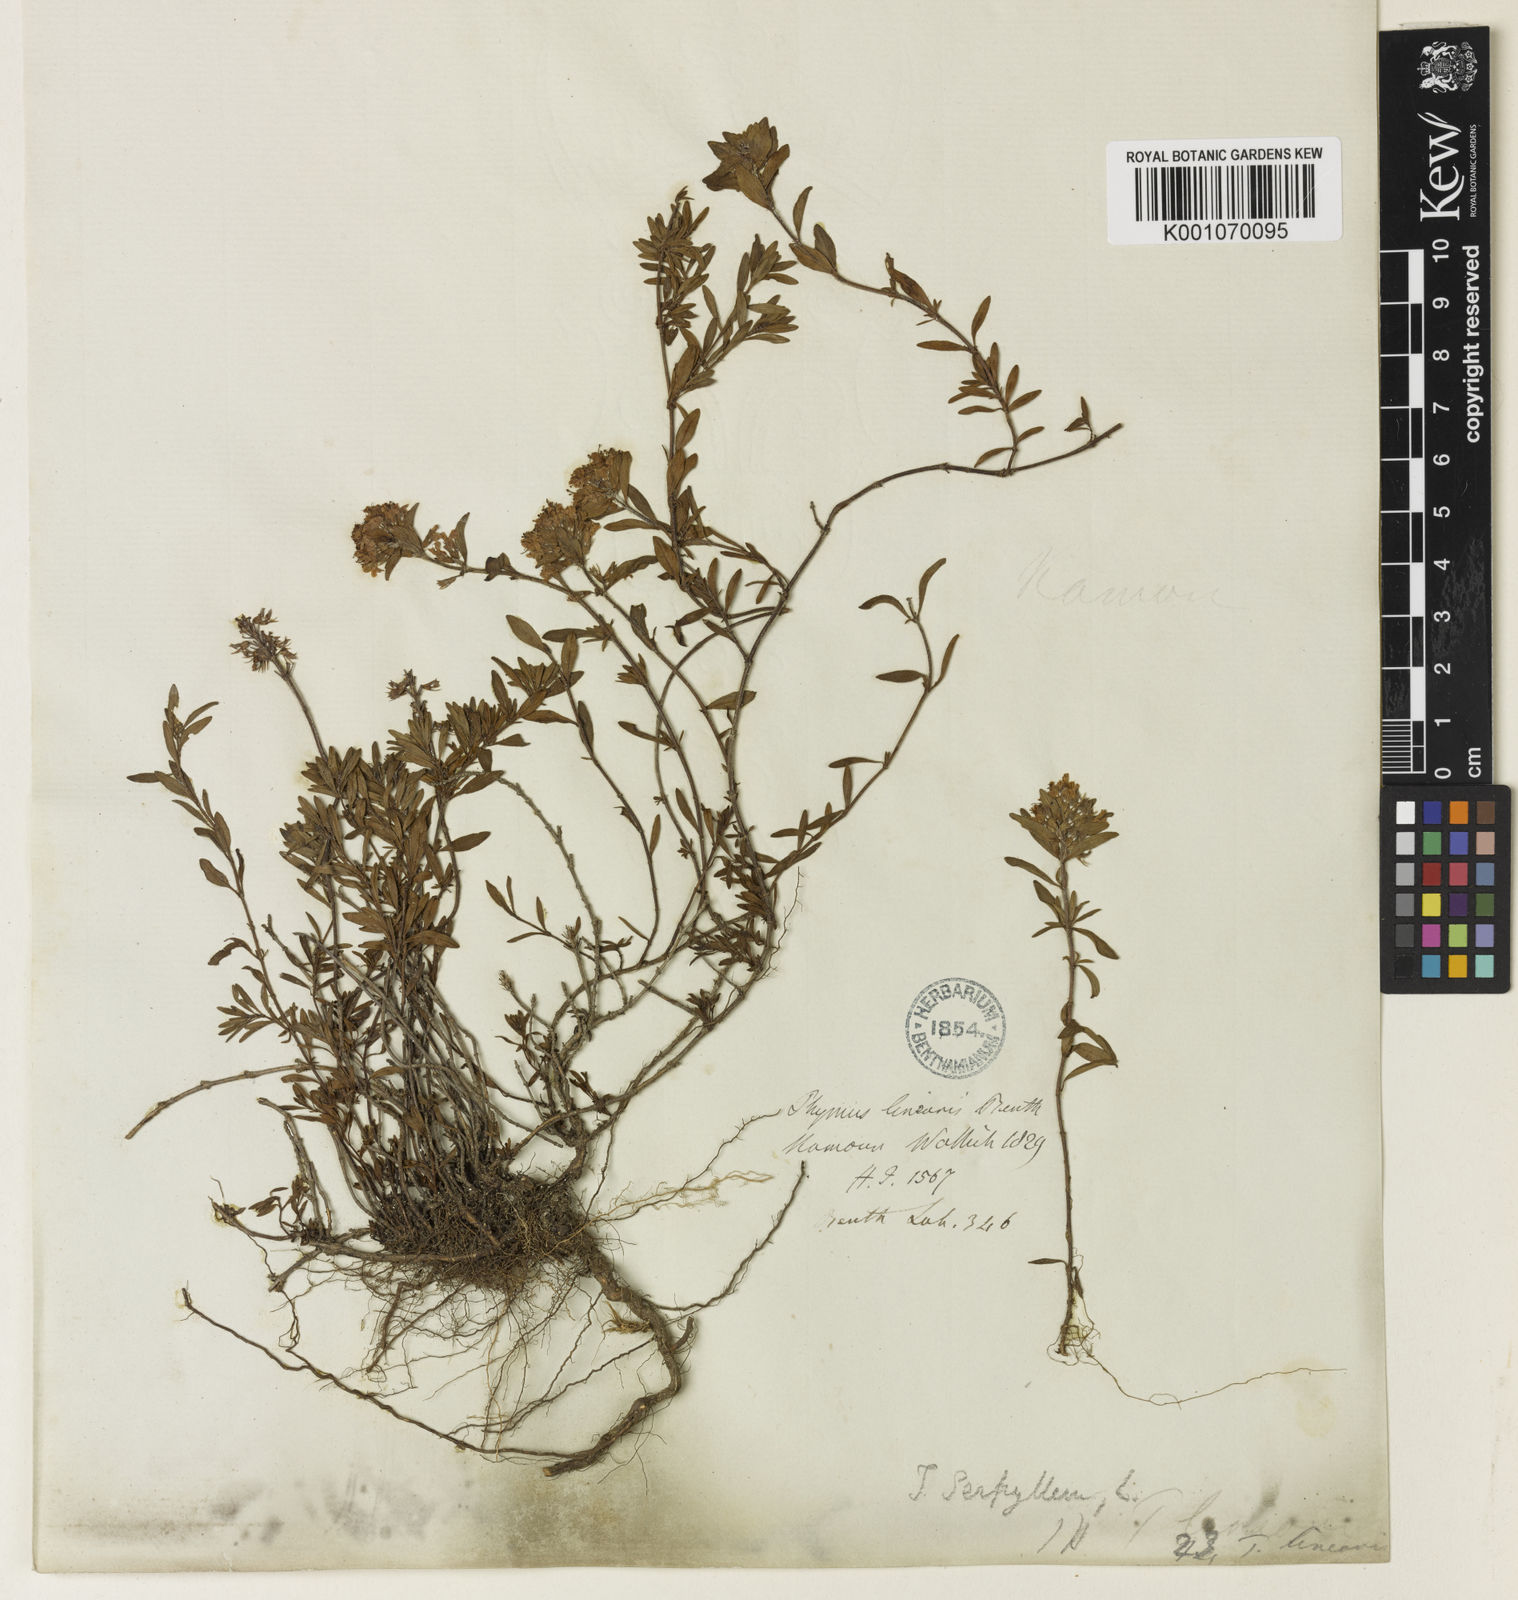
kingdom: Plantae
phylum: Tracheophyta
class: Magnoliopsida
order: Lamiales
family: Lamiaceae
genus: Thymus
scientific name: Thymus linearis
